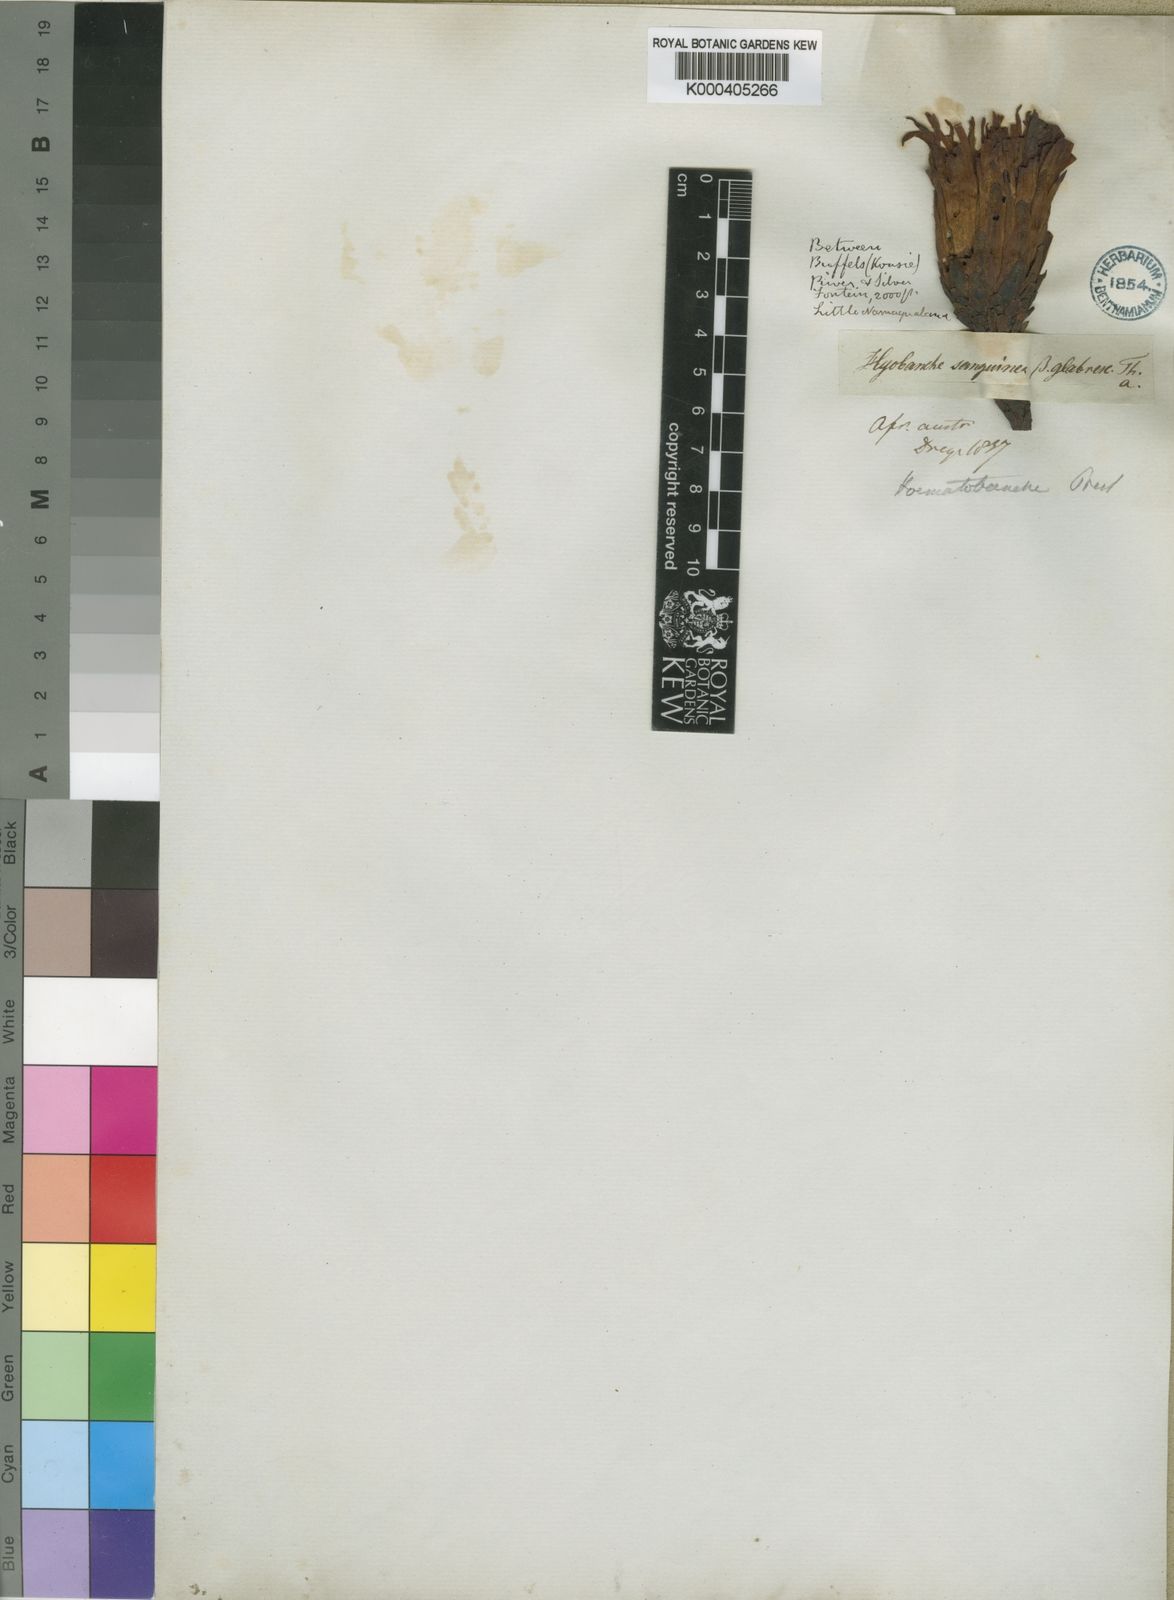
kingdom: Plantae
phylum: Tracheophyta
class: Magnoliopsida
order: Lamiales
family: Orobanchaceae
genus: Hyobanche
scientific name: Hyobanche glabrata
